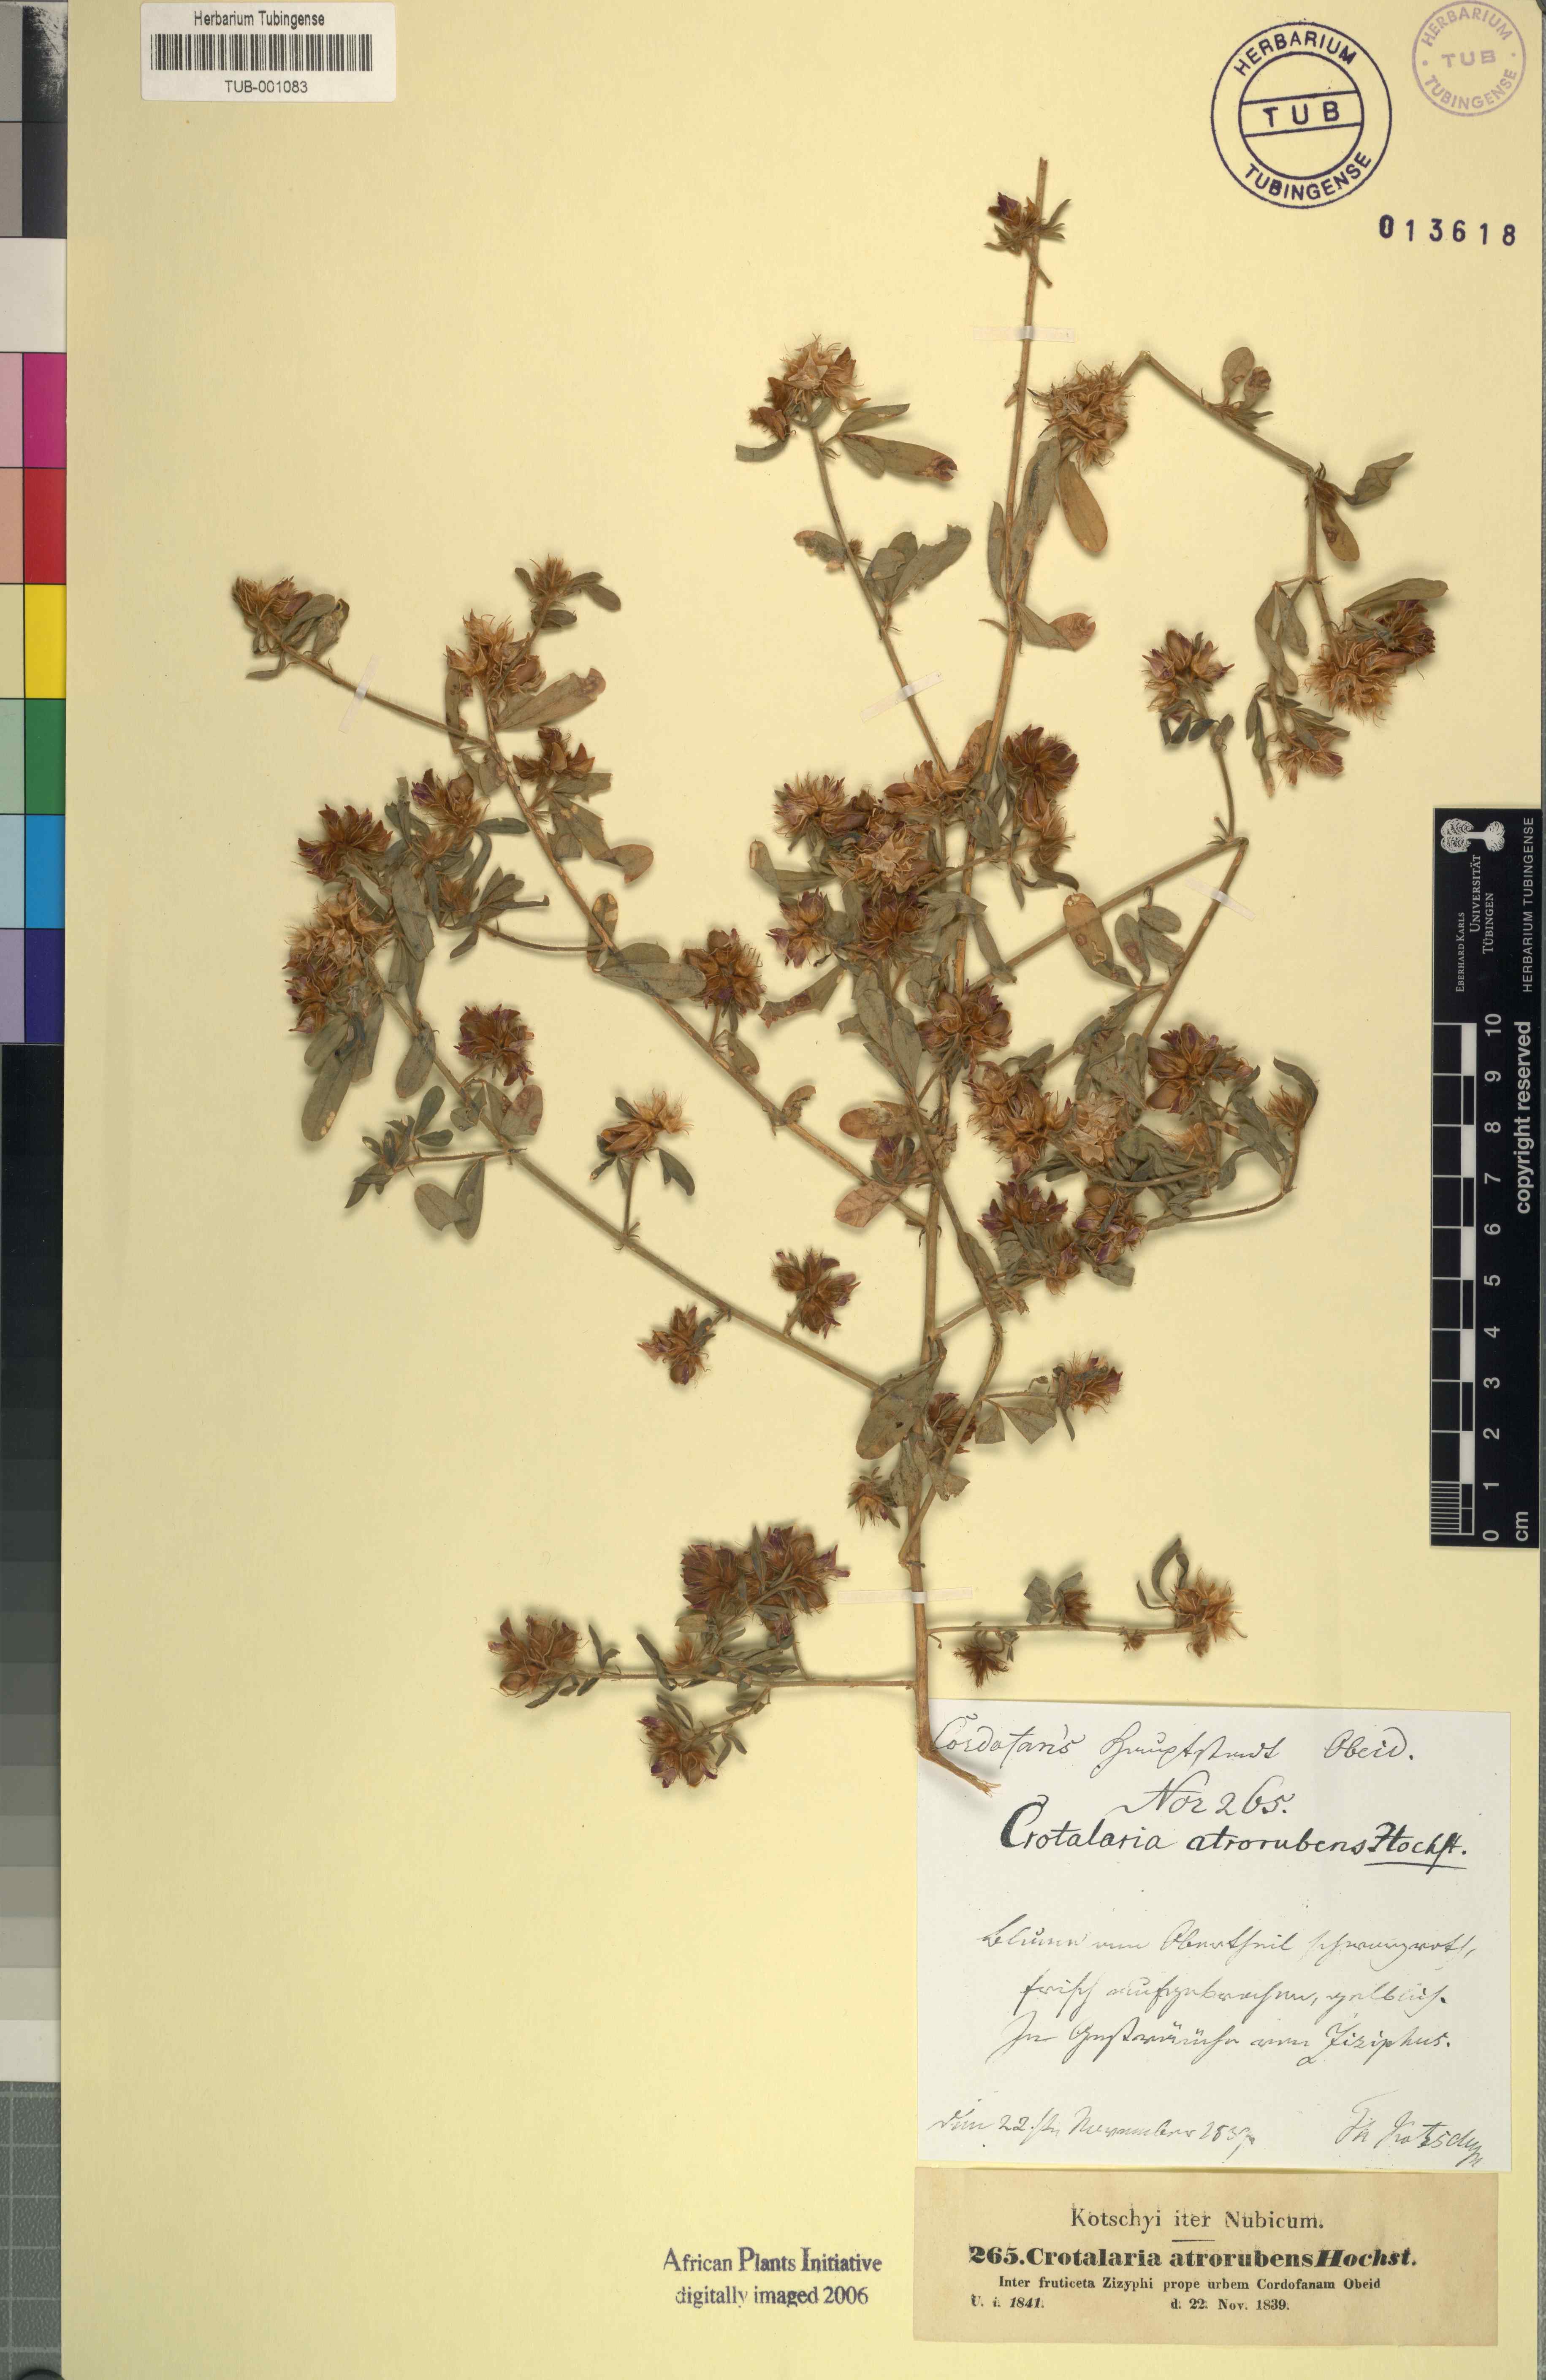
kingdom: Plantae
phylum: Tracheophyta
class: Magnoliopsida
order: Fabales
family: Fabaceae
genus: Crotalaria
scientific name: Crotalaria atrorubens
